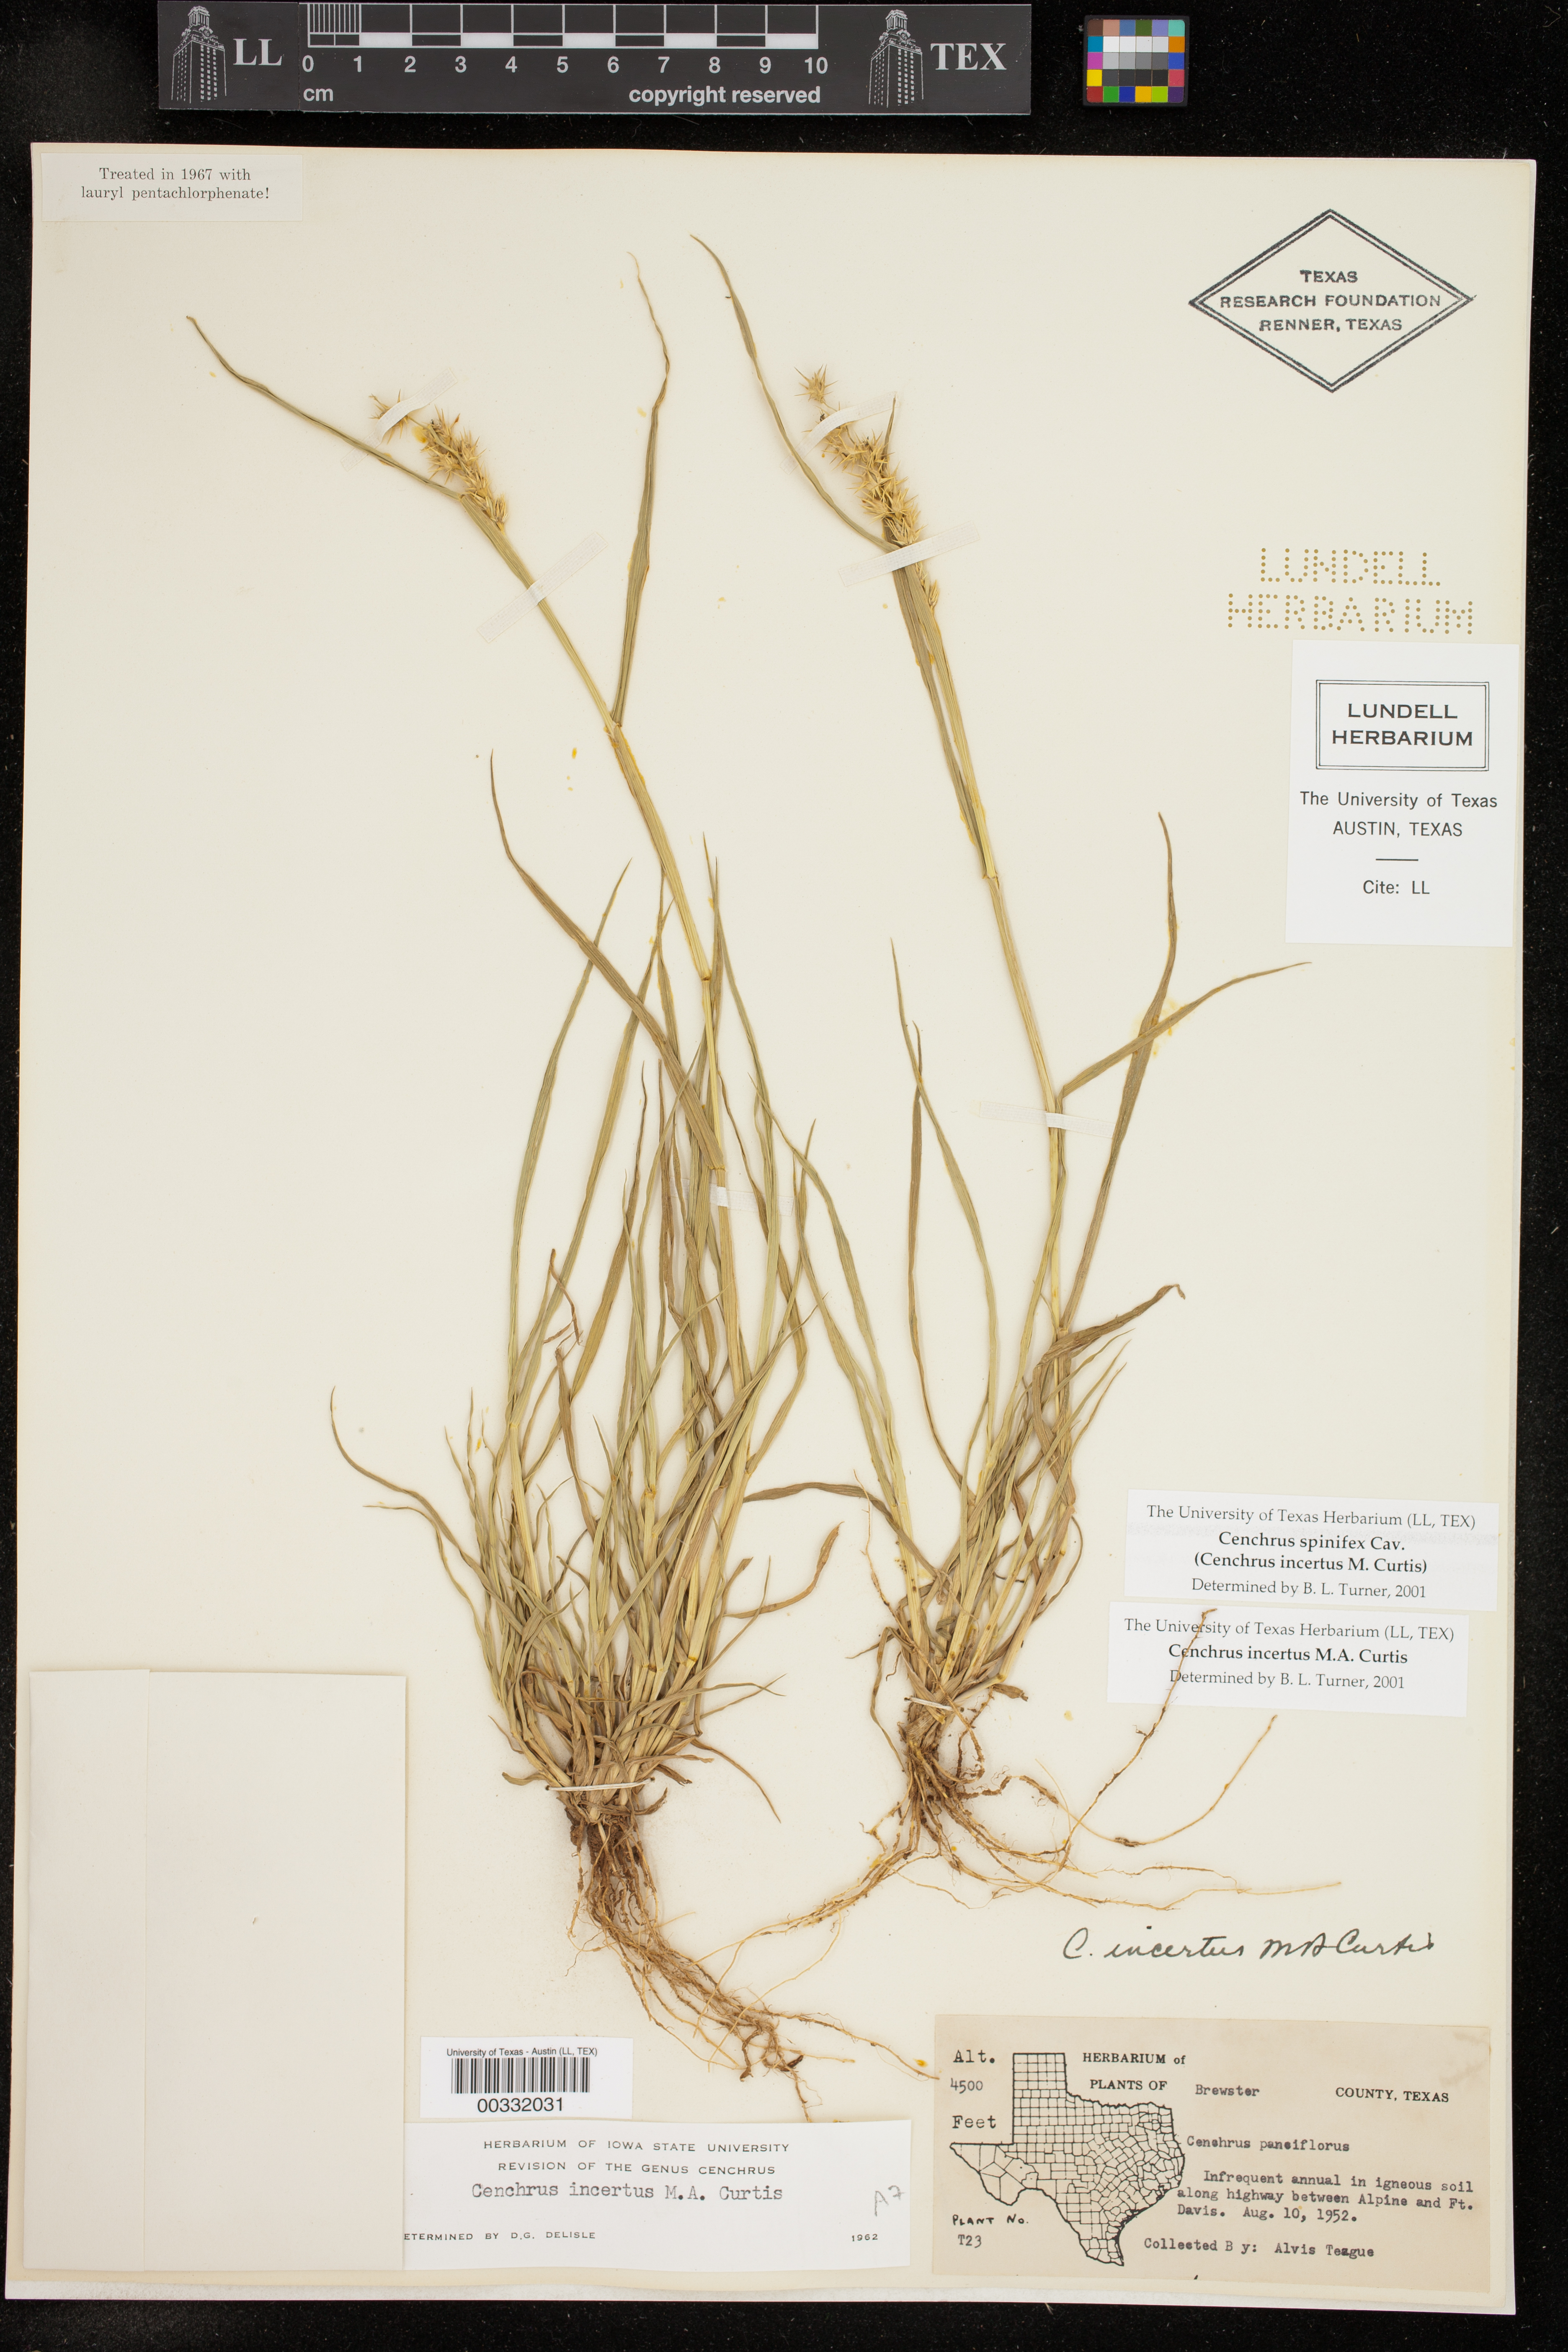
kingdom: Plantae
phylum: Tracheophyta
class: Liliopsida
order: Poales
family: Poaceae
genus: Cenchrus
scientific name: Cenchrus spinifex
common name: Coast sandbur
